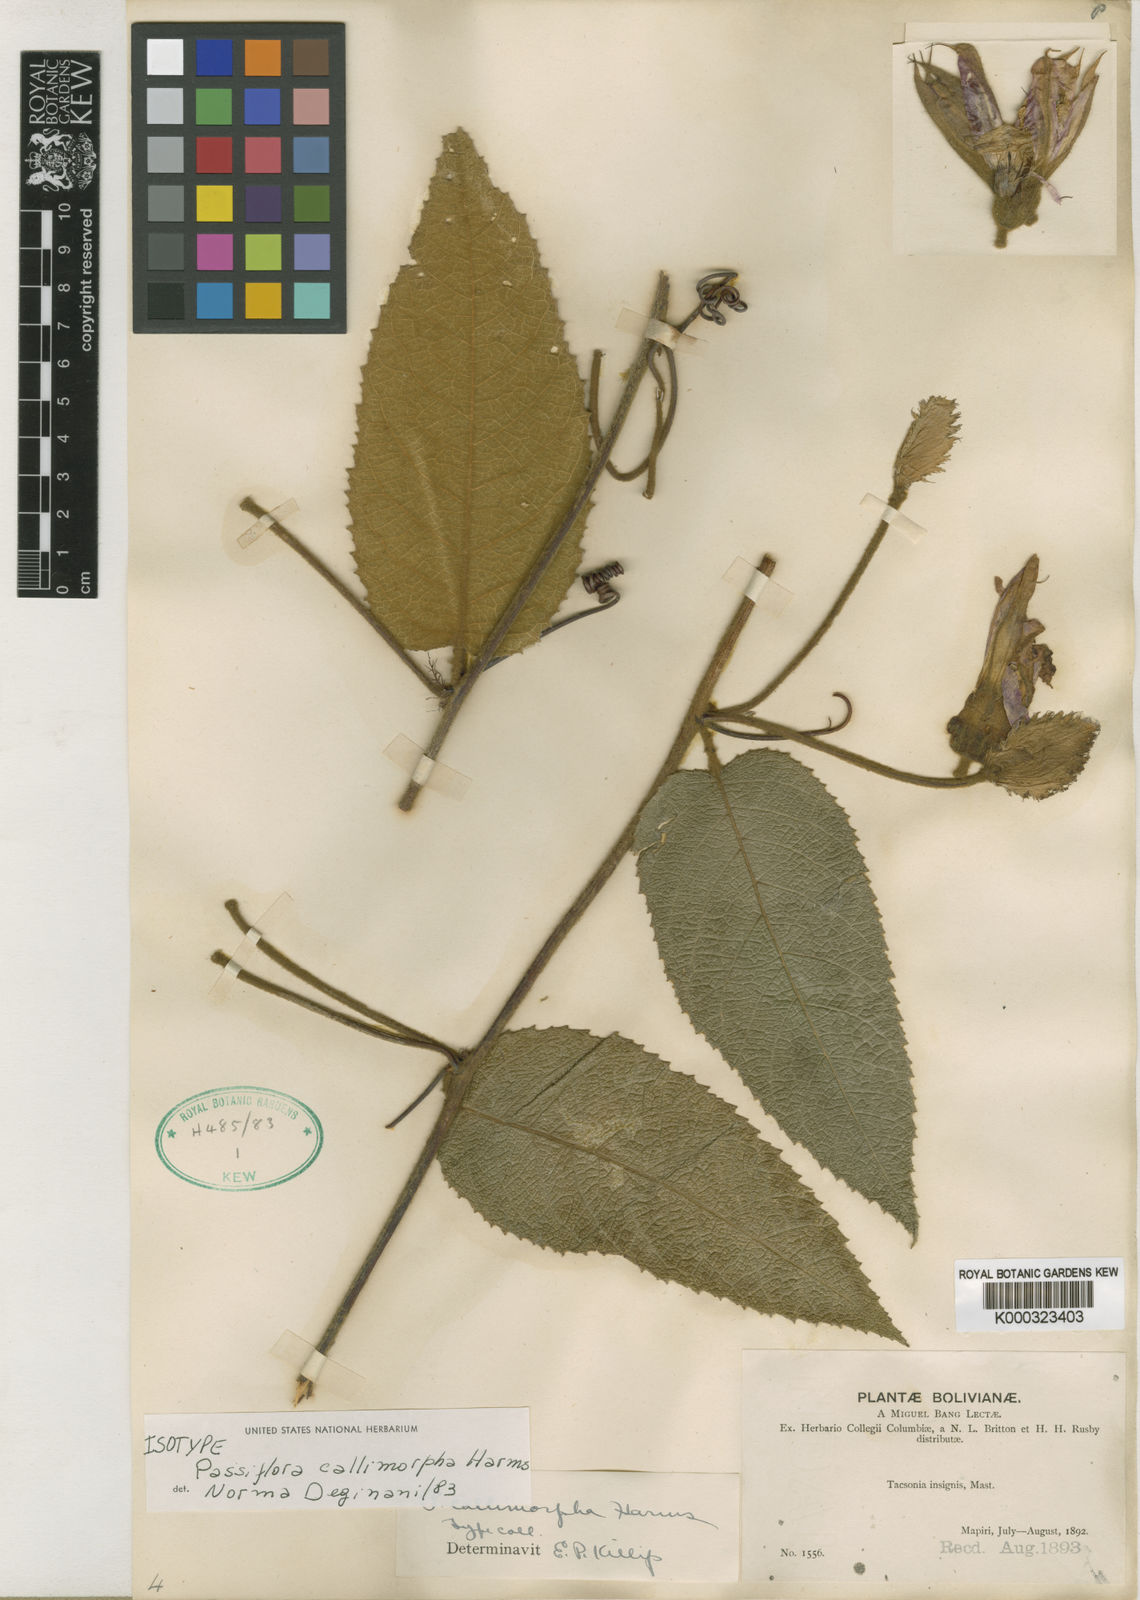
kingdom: Plantae
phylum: Tracheophyta
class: Magnoliopsida
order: Malpighiales
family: Passifloraceae
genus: Passiflora
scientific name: Passiflora insignis
